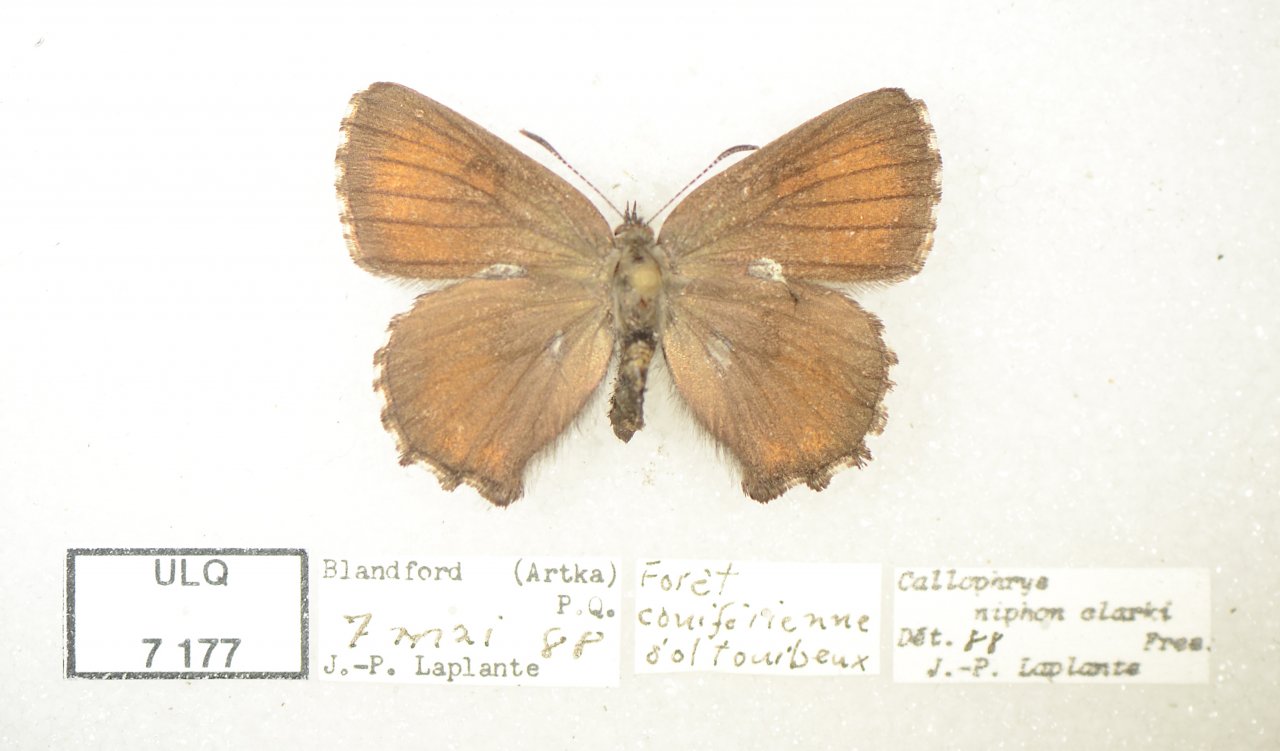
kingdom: Animalia
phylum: Arthropoda
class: Insecta
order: Lepidoptera
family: Lycaenidae
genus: Incisalia
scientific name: Incisalia niphon
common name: Eastern Pine Elfin
